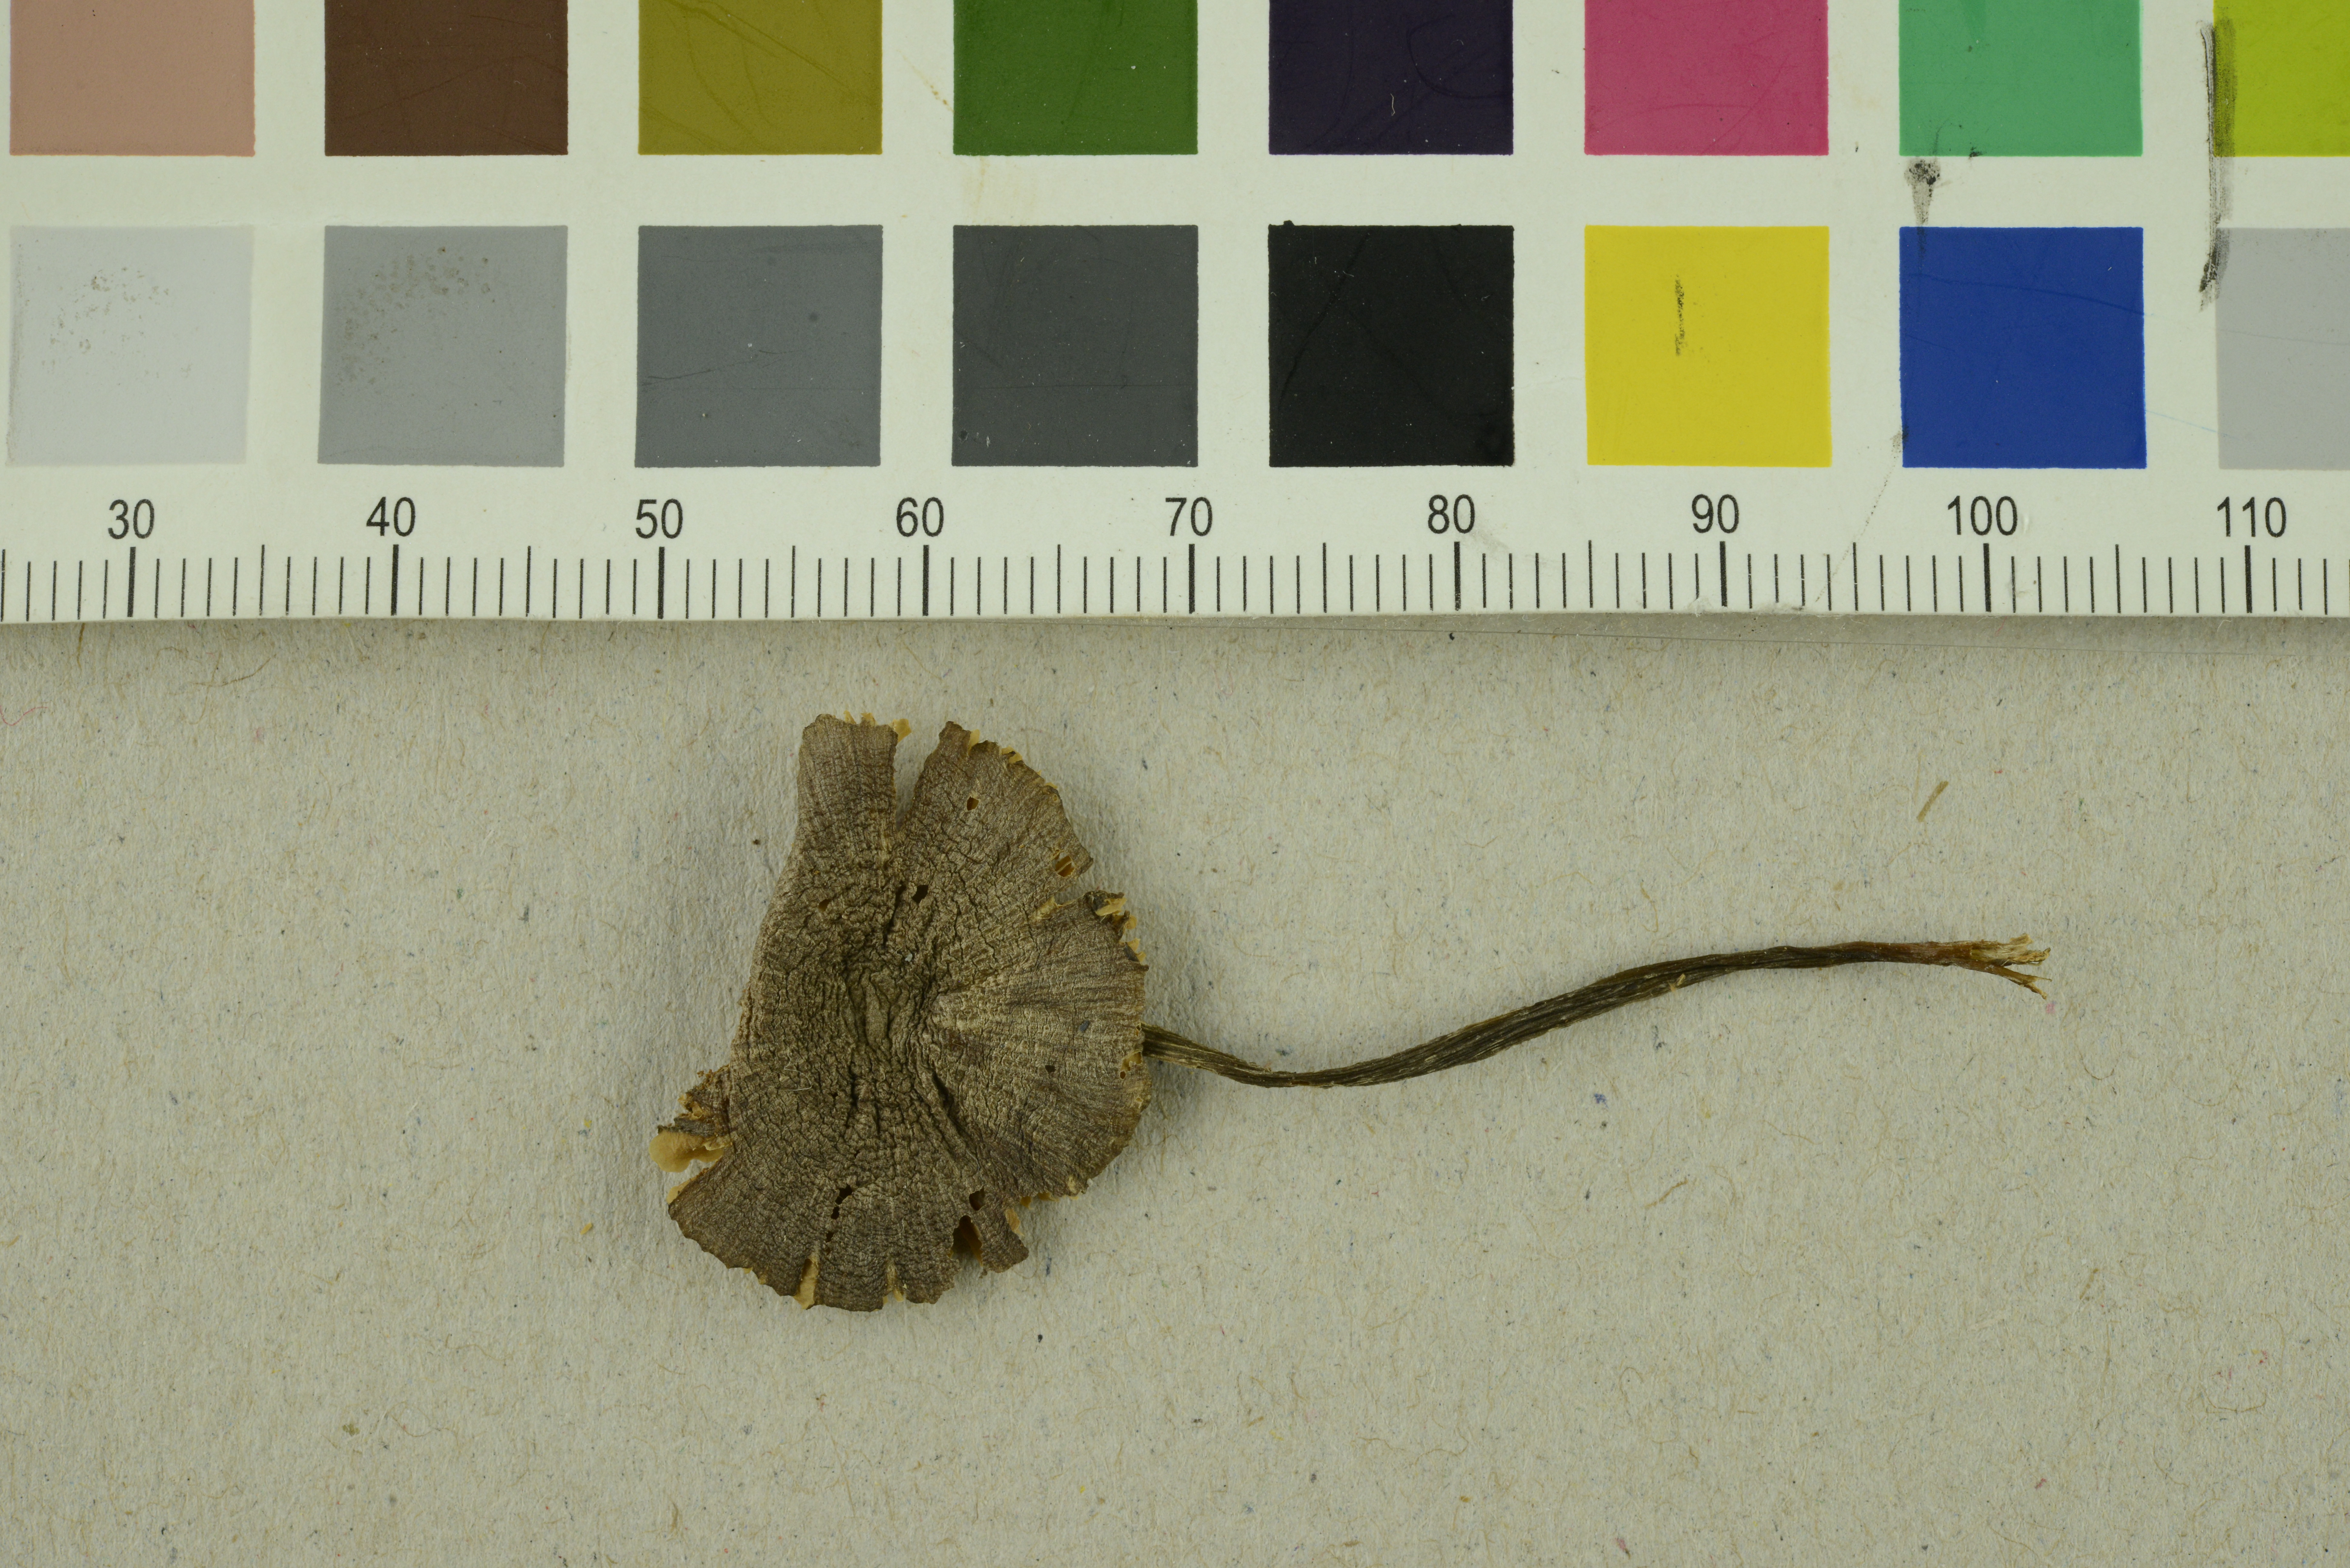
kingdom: Fungi
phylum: Basidiomycota
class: Agaricomycetes
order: Agaricales
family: Entolomataceae
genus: Entoloma
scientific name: Entoloma griseocyaneum
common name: Felted pinkgill
